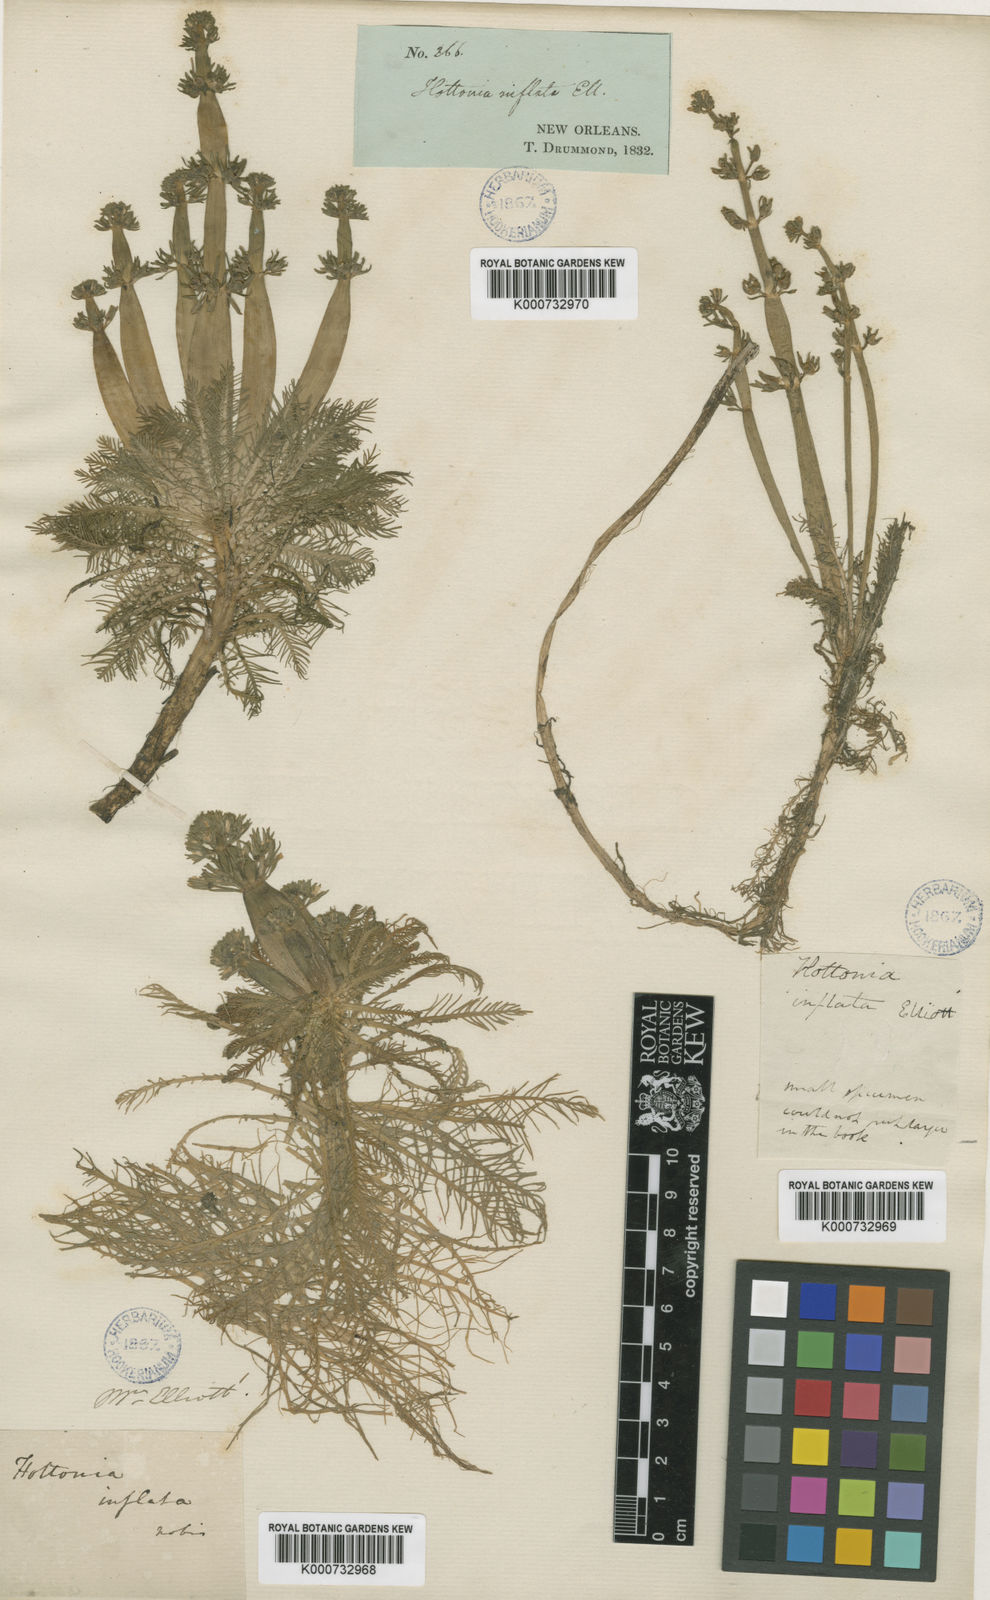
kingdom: Plantae
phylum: Tracheophyta
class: Magnoliopsida
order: Ericales
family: Primulaceae
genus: Hottonia
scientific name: Hottonia inflata
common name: American featherfoil
